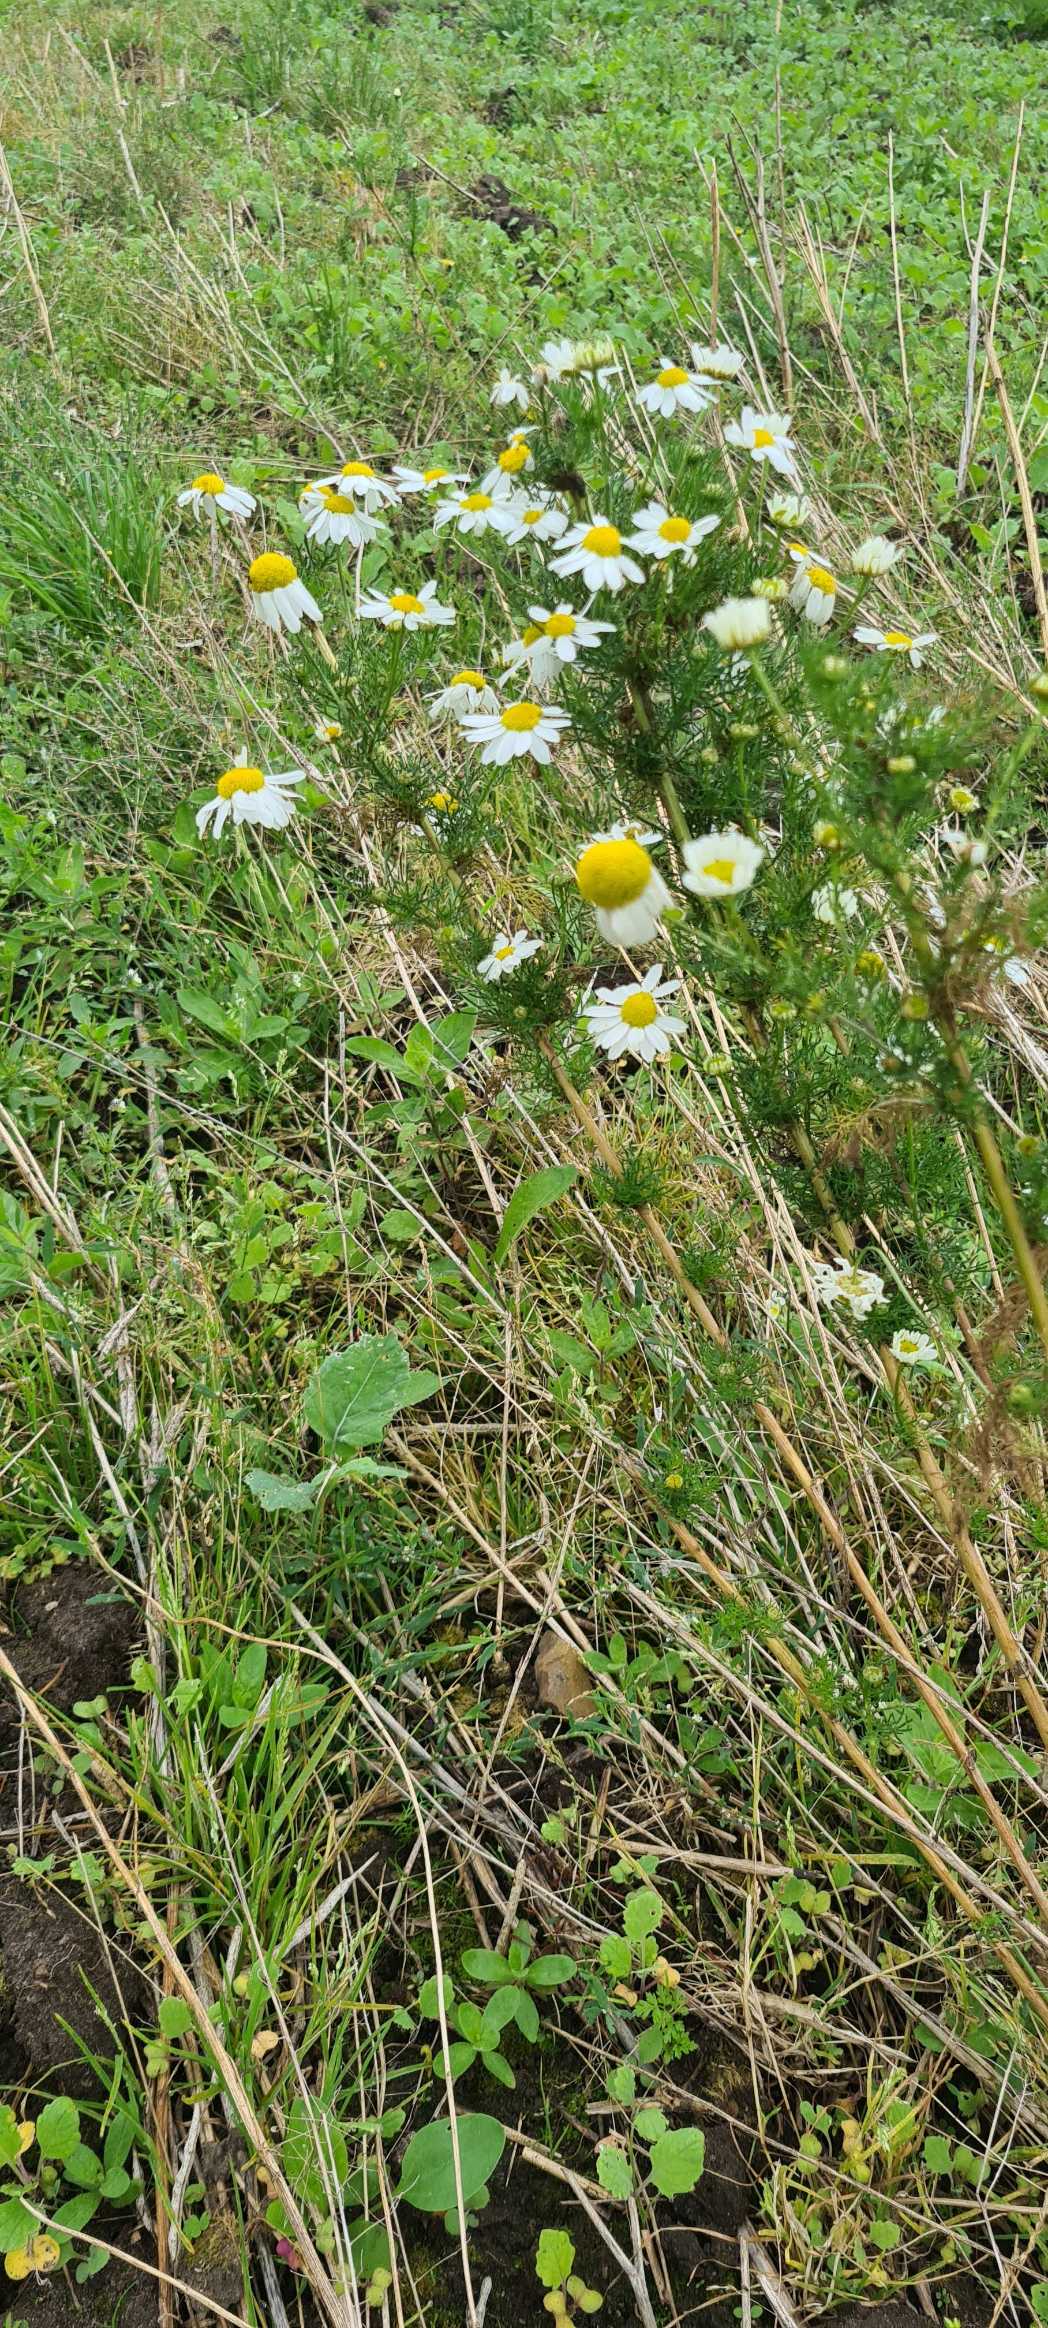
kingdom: Plantae
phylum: Tracheophyta
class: Magnoliopsida
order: Asterales
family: Asteraceae
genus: Tripleurospermum
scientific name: Tripleurospermum inodorum
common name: Lugtløs kamille
